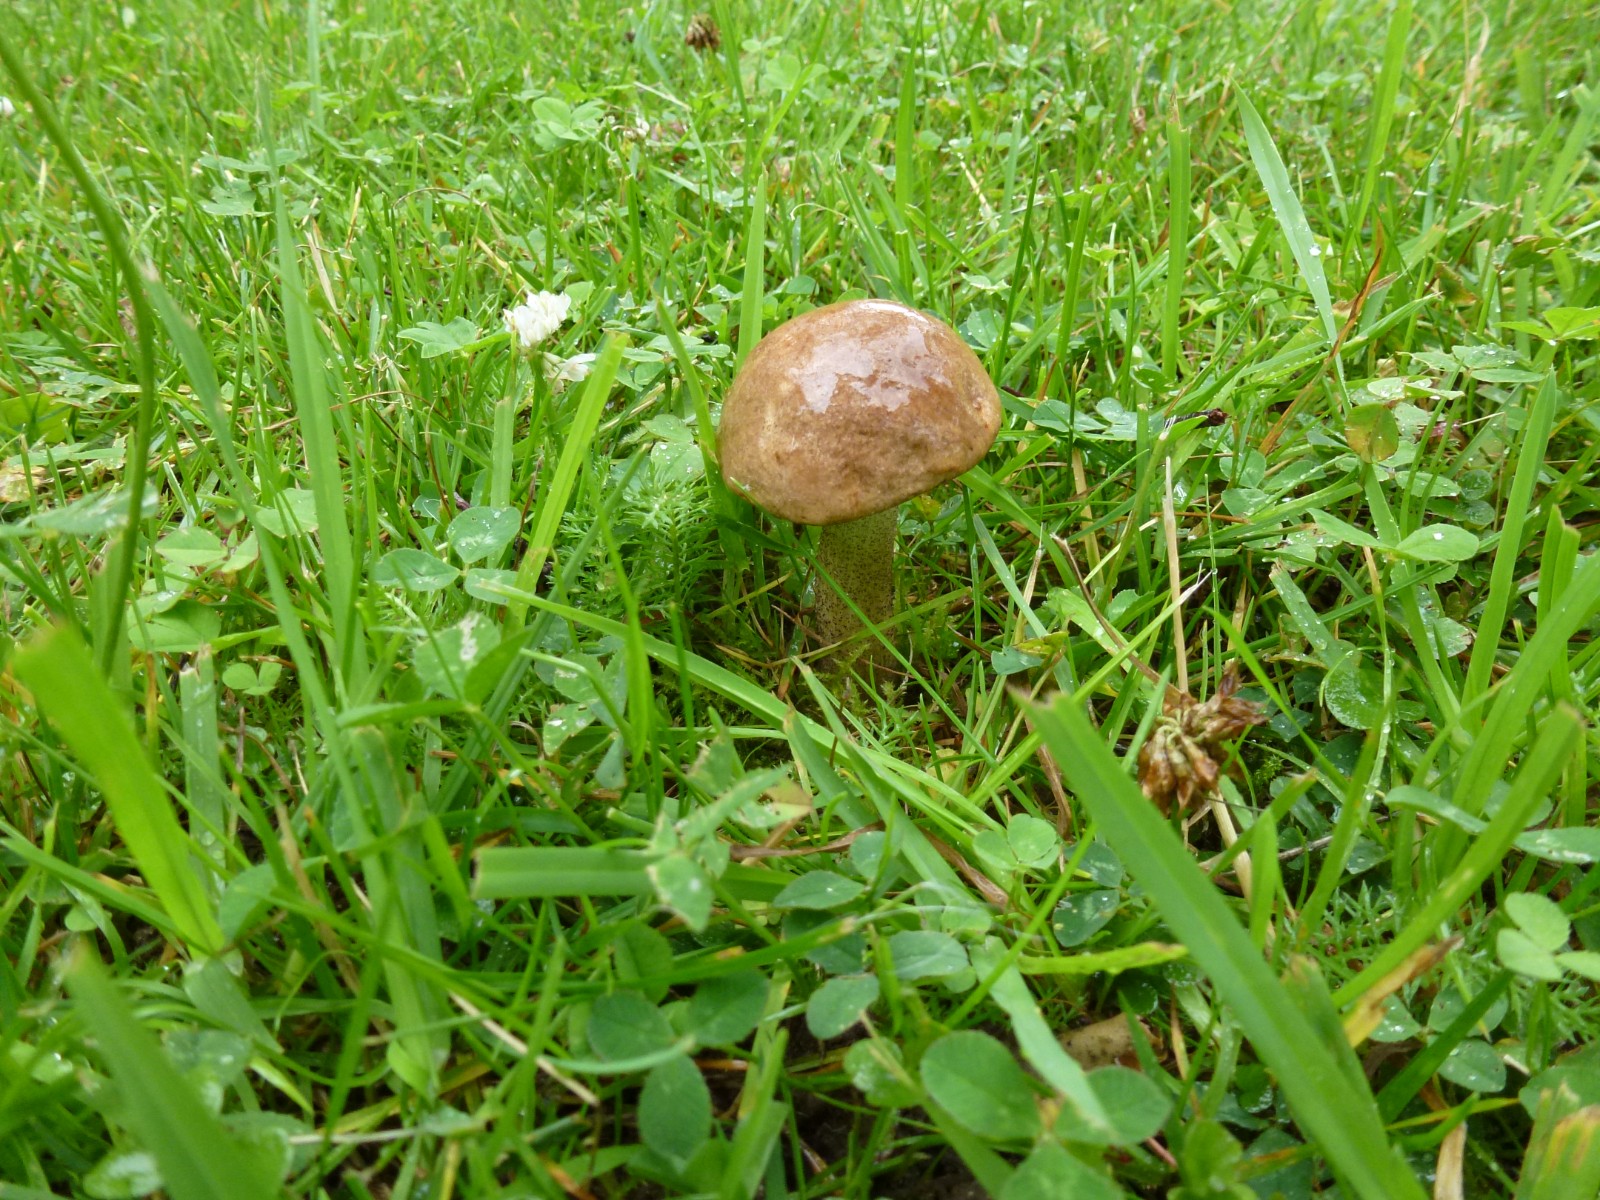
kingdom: Fungi
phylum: Basidiomycota
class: Agaricomycetes
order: Boletales
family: Boletaceae
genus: Leccinum
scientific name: Leccinum
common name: skælrørhat
